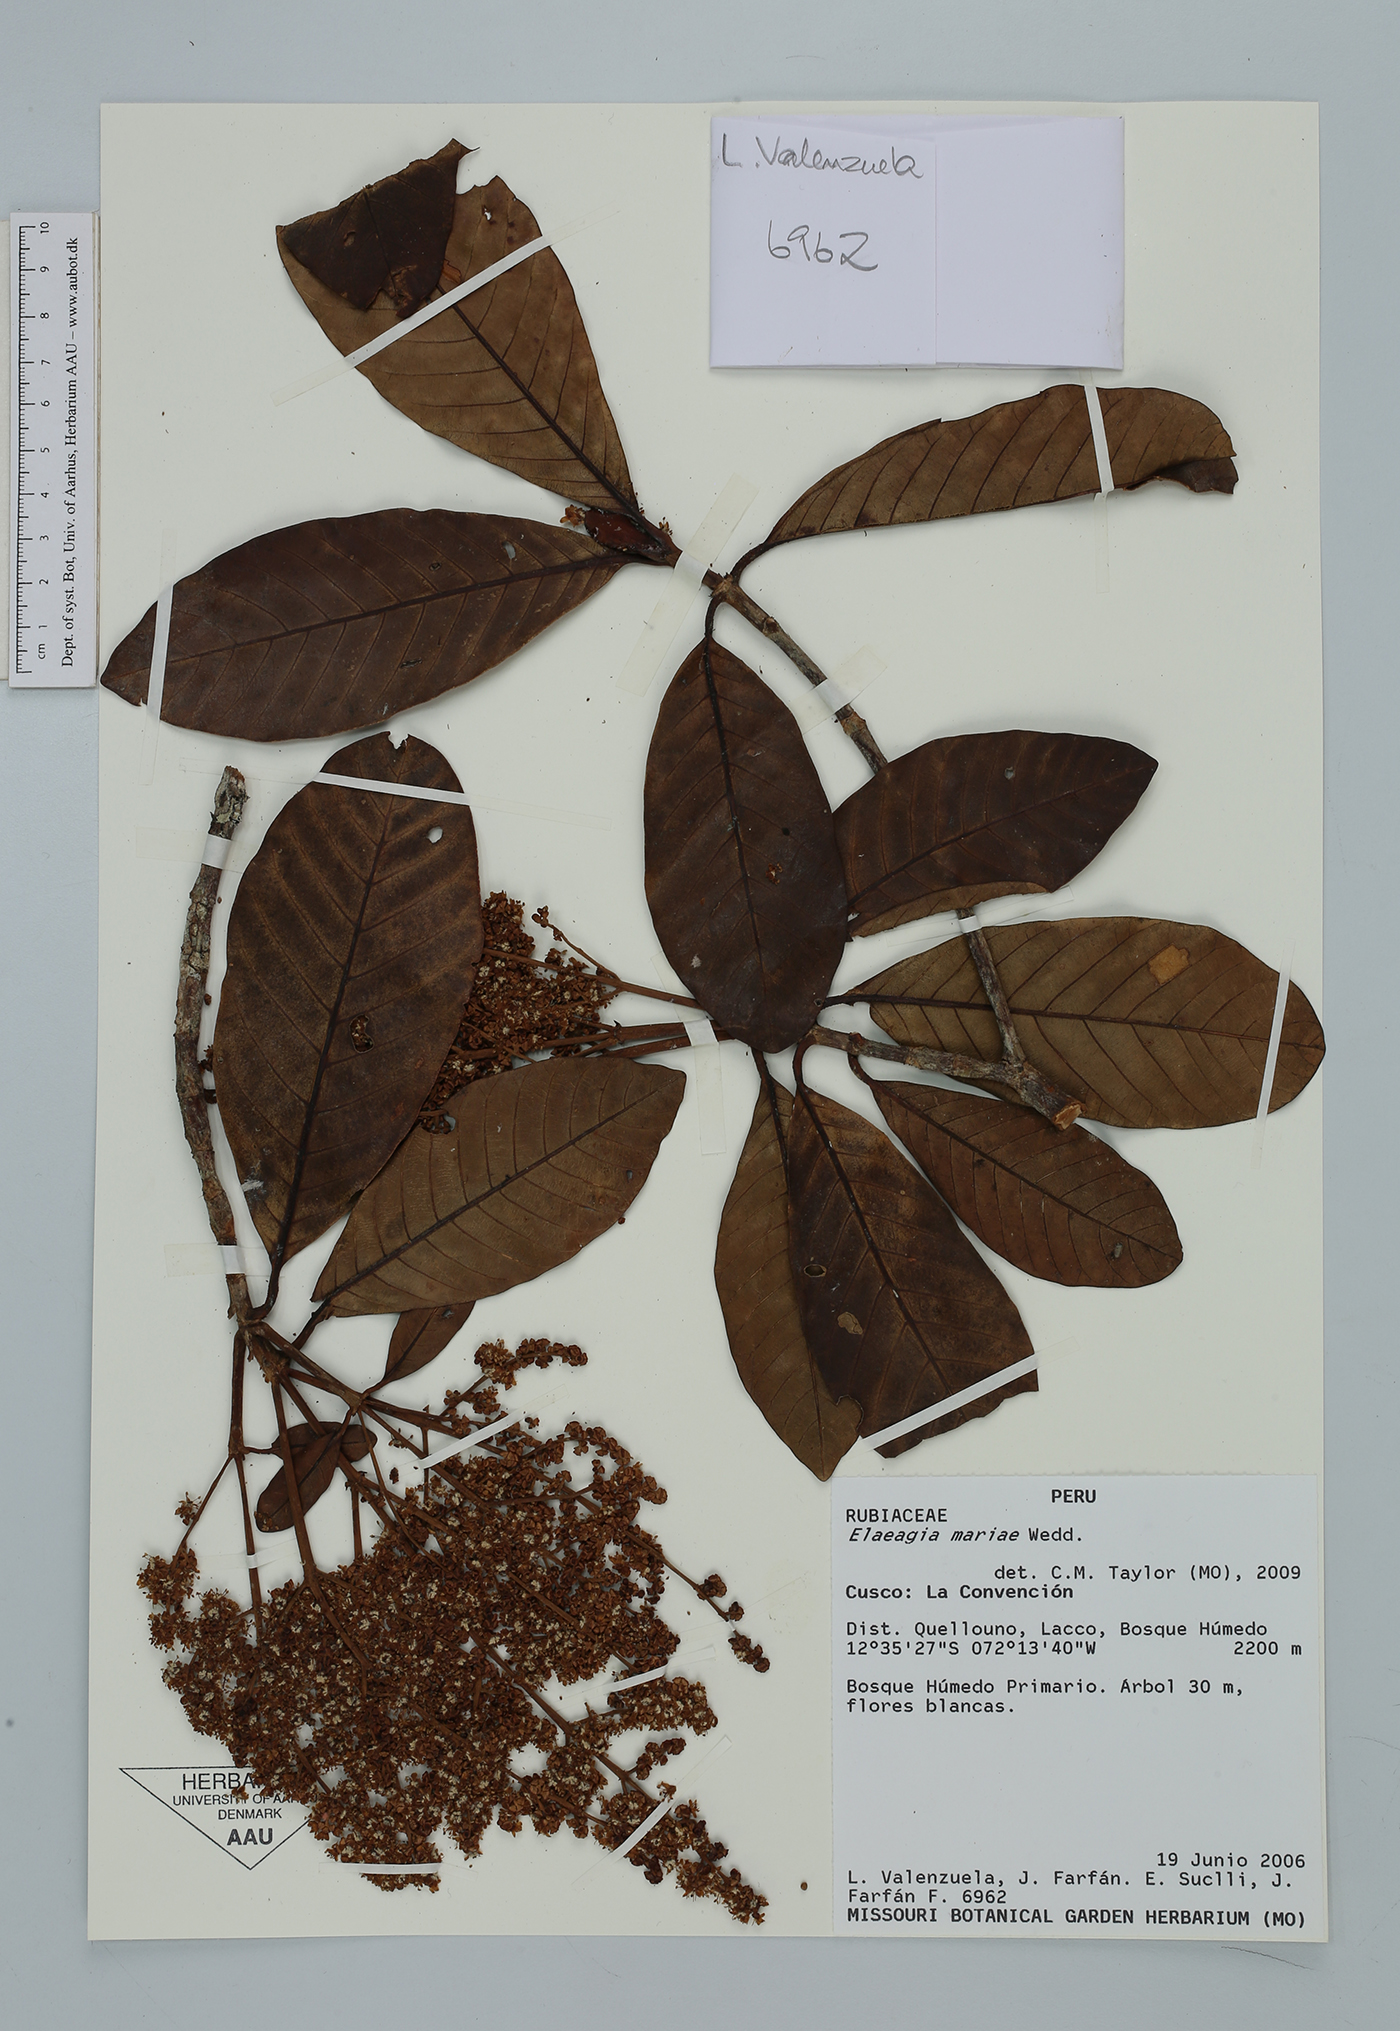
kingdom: Plantae
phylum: Tracheophyta
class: Magnoliopsida
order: Gentianales
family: Rubiaceae
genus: Elaeagia
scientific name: Elaeagia mariae
